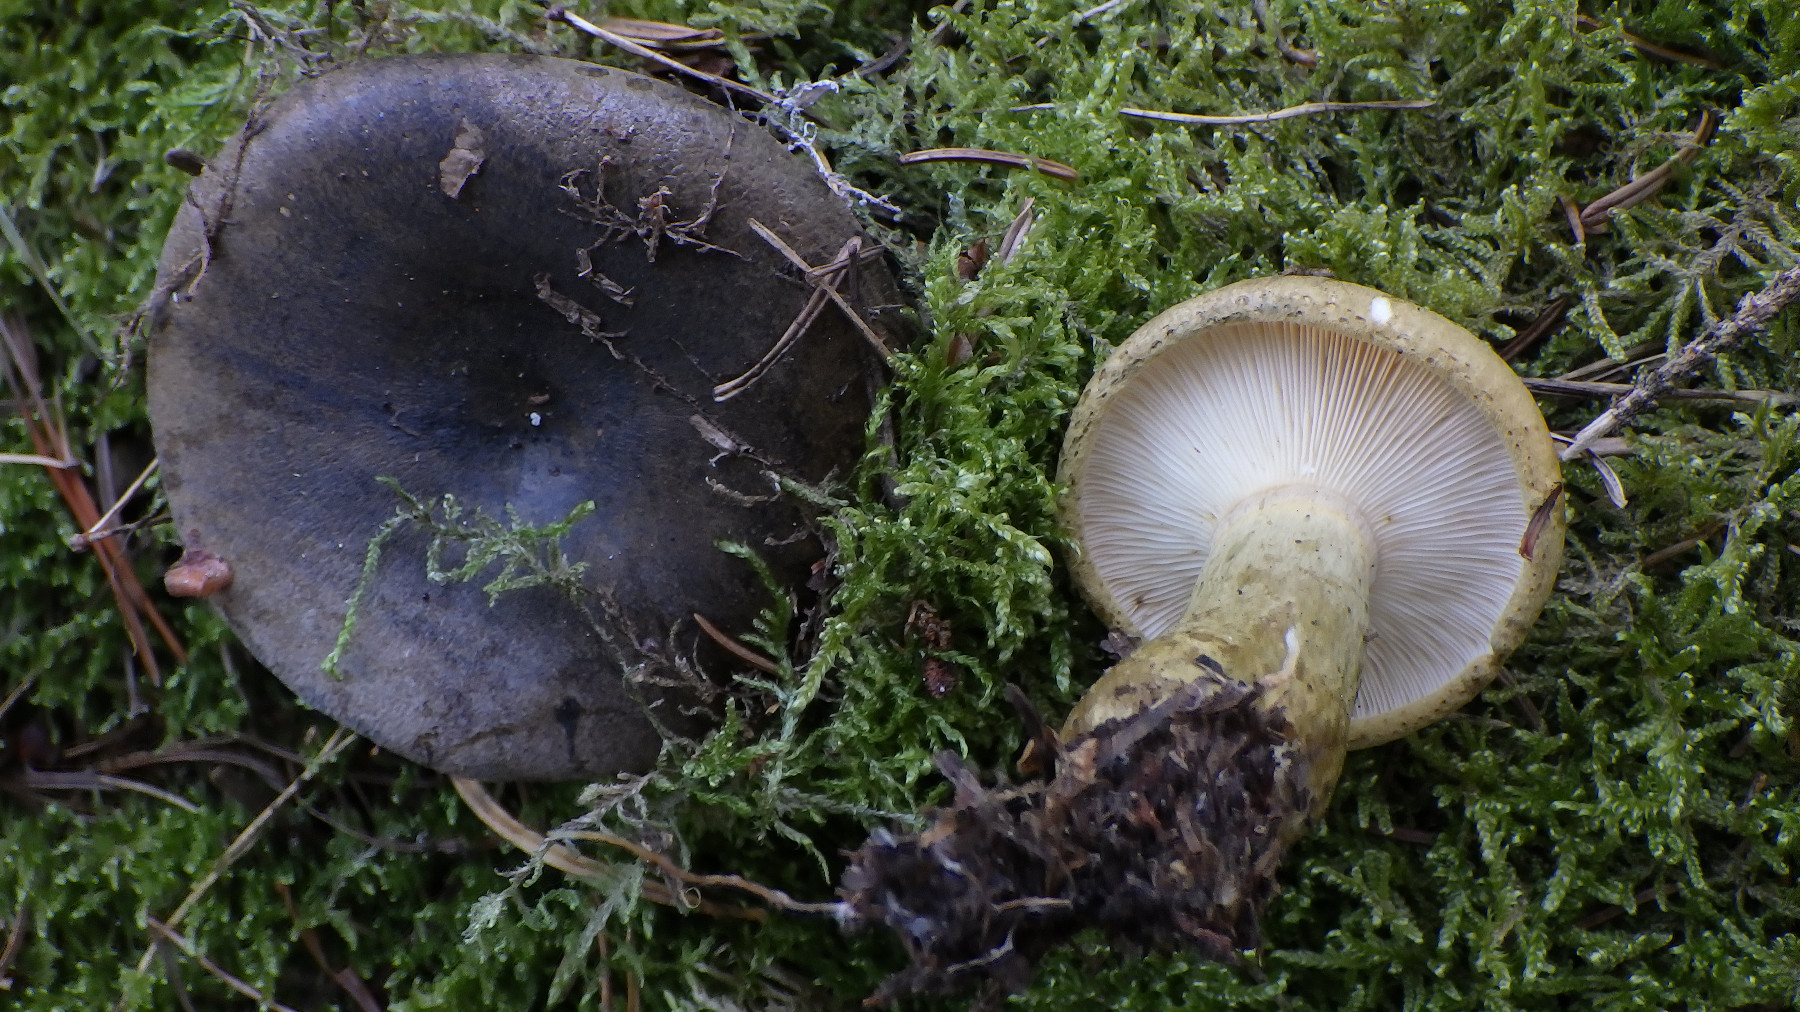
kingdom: Fungi
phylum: Basidiomycota
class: Agaricomycetes
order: Russulales
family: Russulaceae
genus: Lactarius
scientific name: Lactarius necator
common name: manddraber-mælkehat
